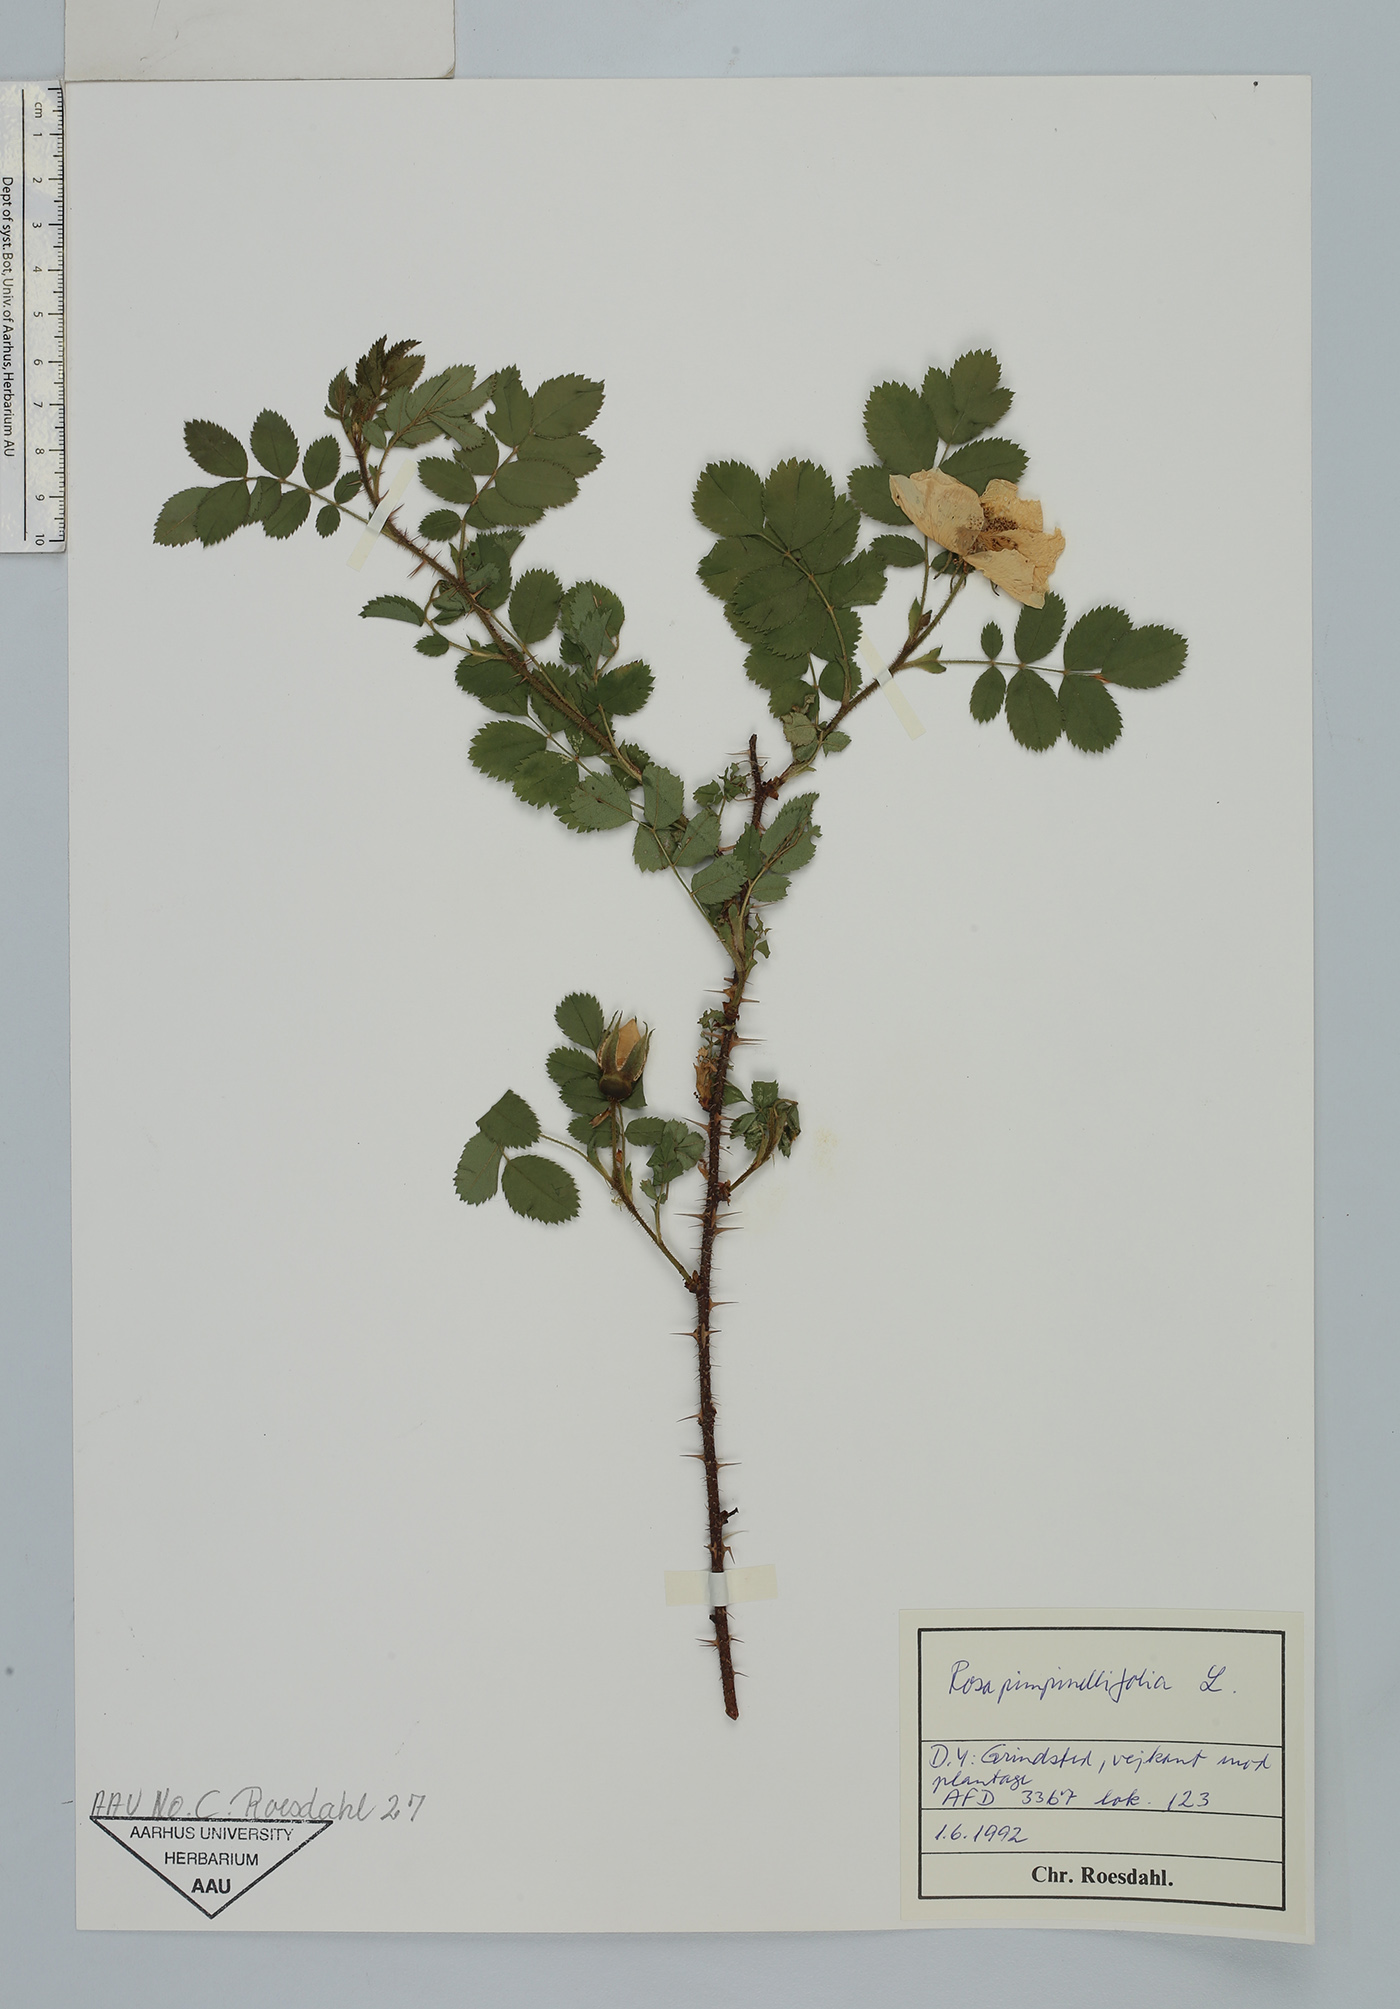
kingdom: Plantae
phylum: Tracheophyta
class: Magnoliopsida
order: Rosales
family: Rosaceae
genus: Rosa
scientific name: Rosa spinosissima
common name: Burnet rose
